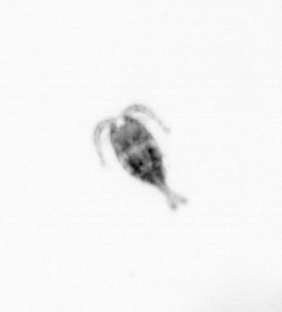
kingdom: Animalia
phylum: Arthropoda
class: Copepoda
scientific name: Copepoda
